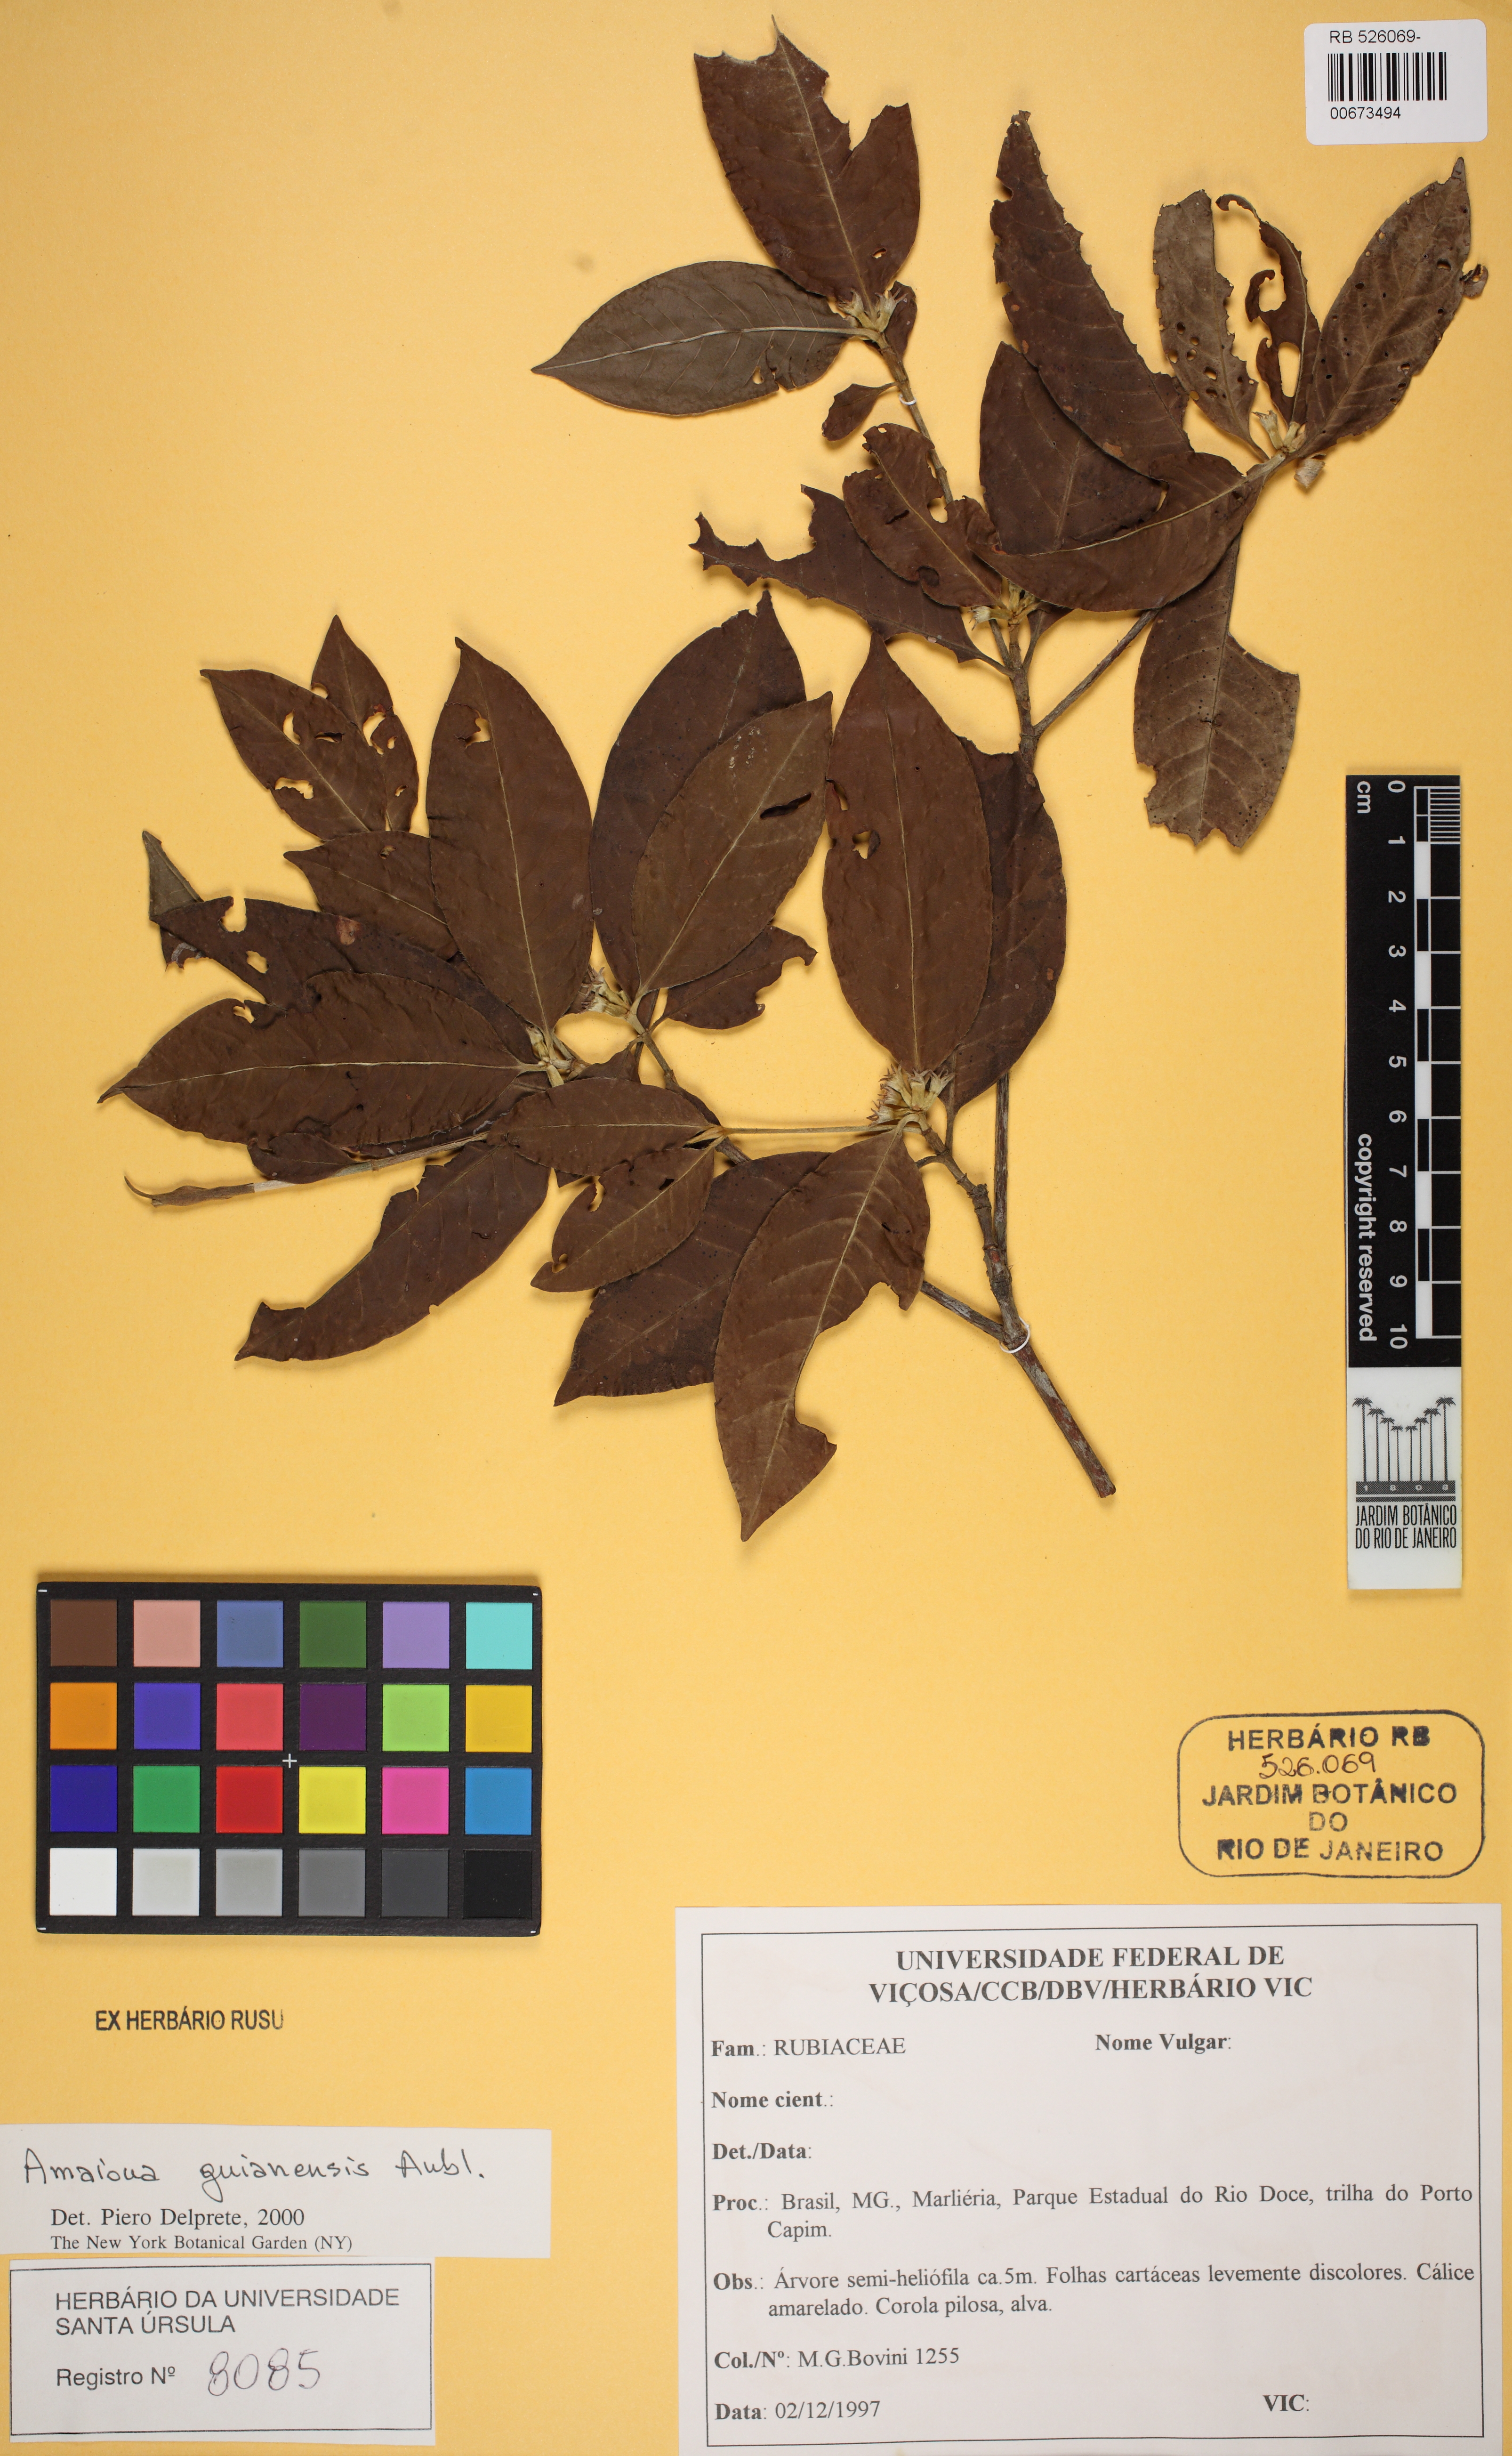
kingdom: Plantae
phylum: Tracheophyta
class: Magnoliopsida
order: Gentianales
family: Rubiaceae
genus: Amaioua
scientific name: Amaioua guianensis
